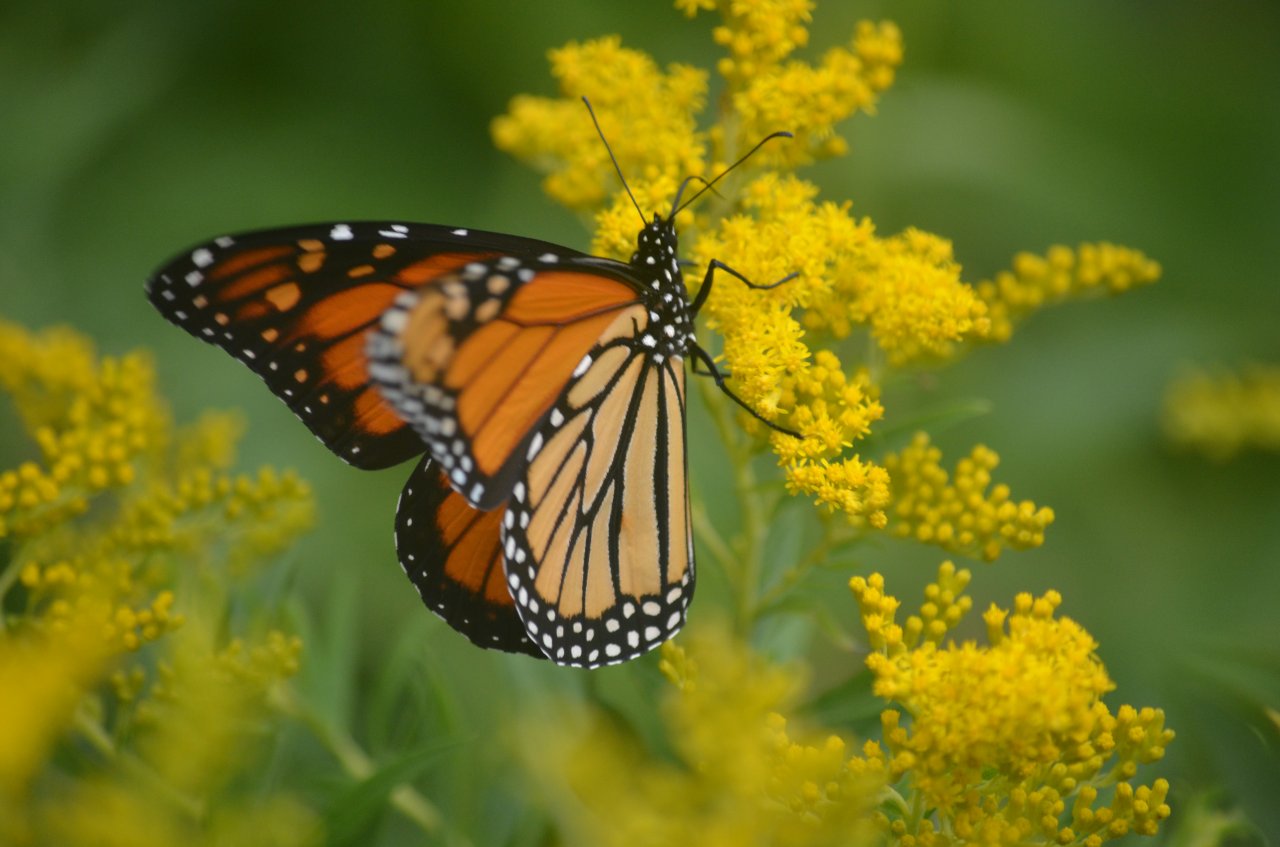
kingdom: Animalia
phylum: Arthropoda
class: Insecta
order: Lepidoptera
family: Nymphalidae
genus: Danaus
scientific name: Danaus plexippus
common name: Monarch
